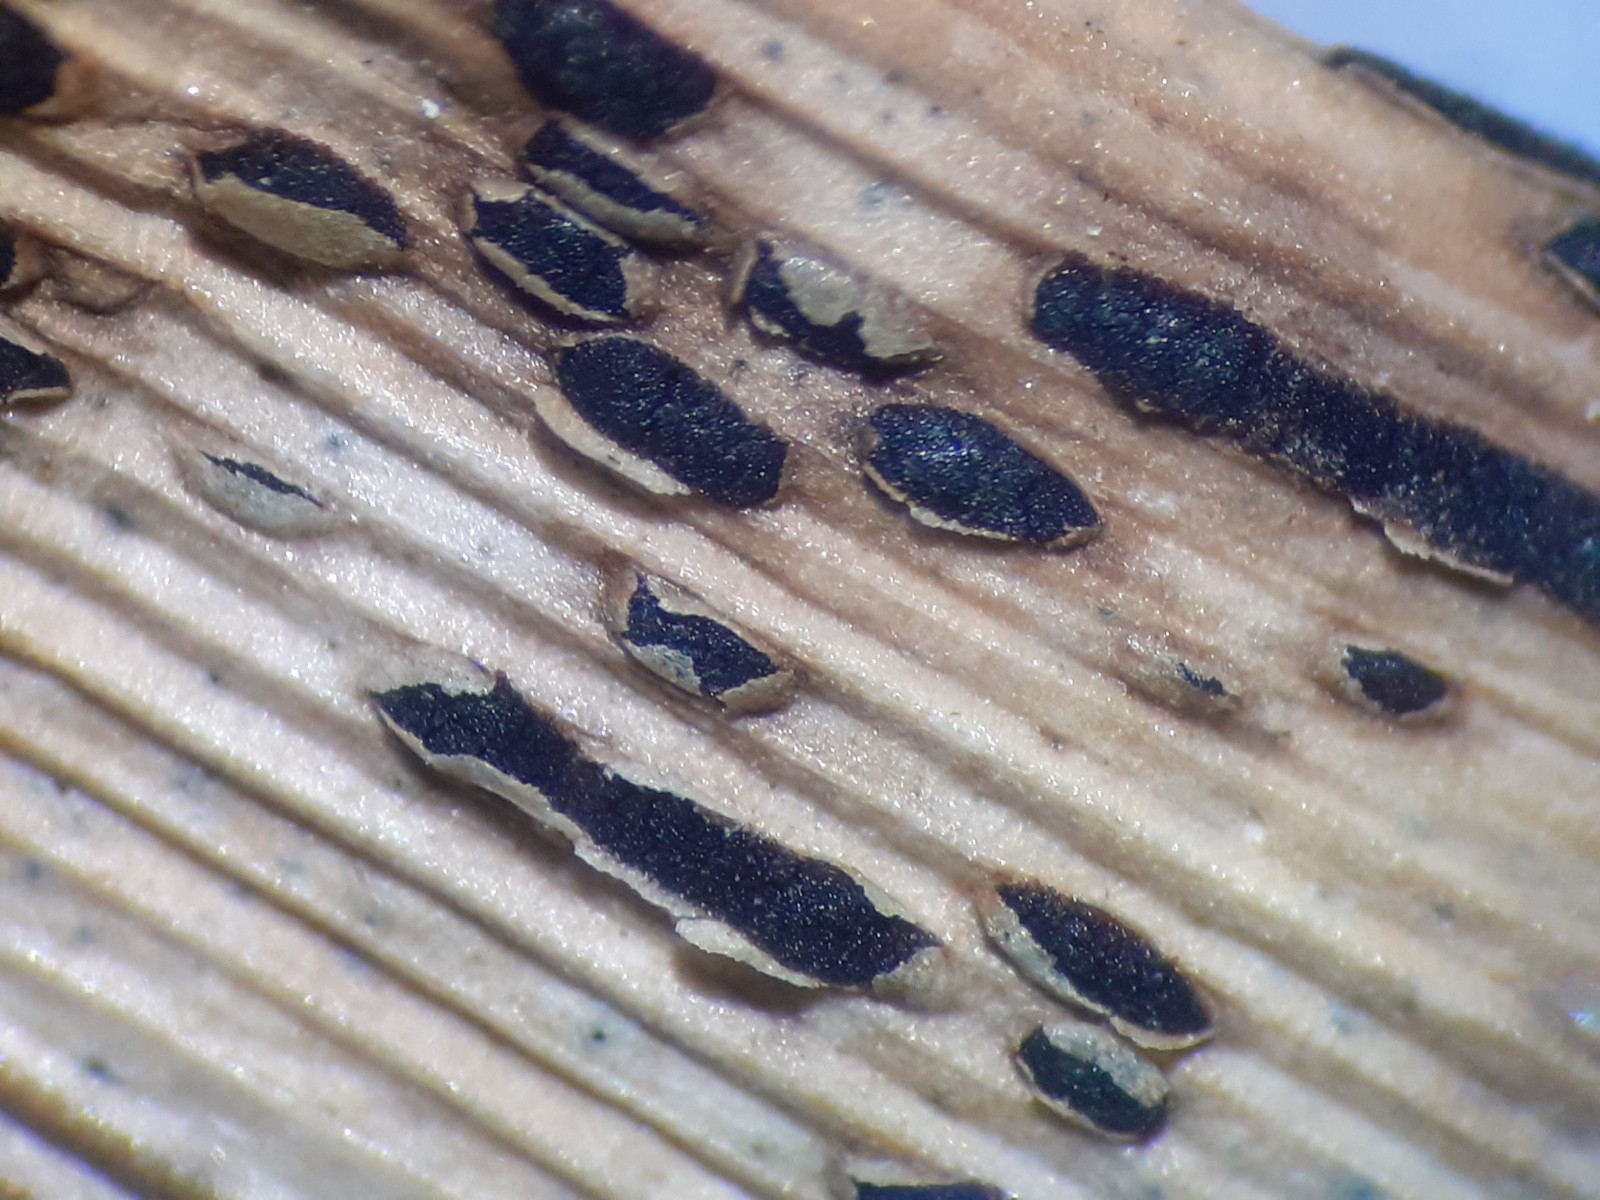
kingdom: Fungi
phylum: Basidiomycota
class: Pucciniomycetes
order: Pucciniales
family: Pucciniaceae
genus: Puccinia
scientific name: Puccinia phragmitis
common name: tagrør-tvecellerust
